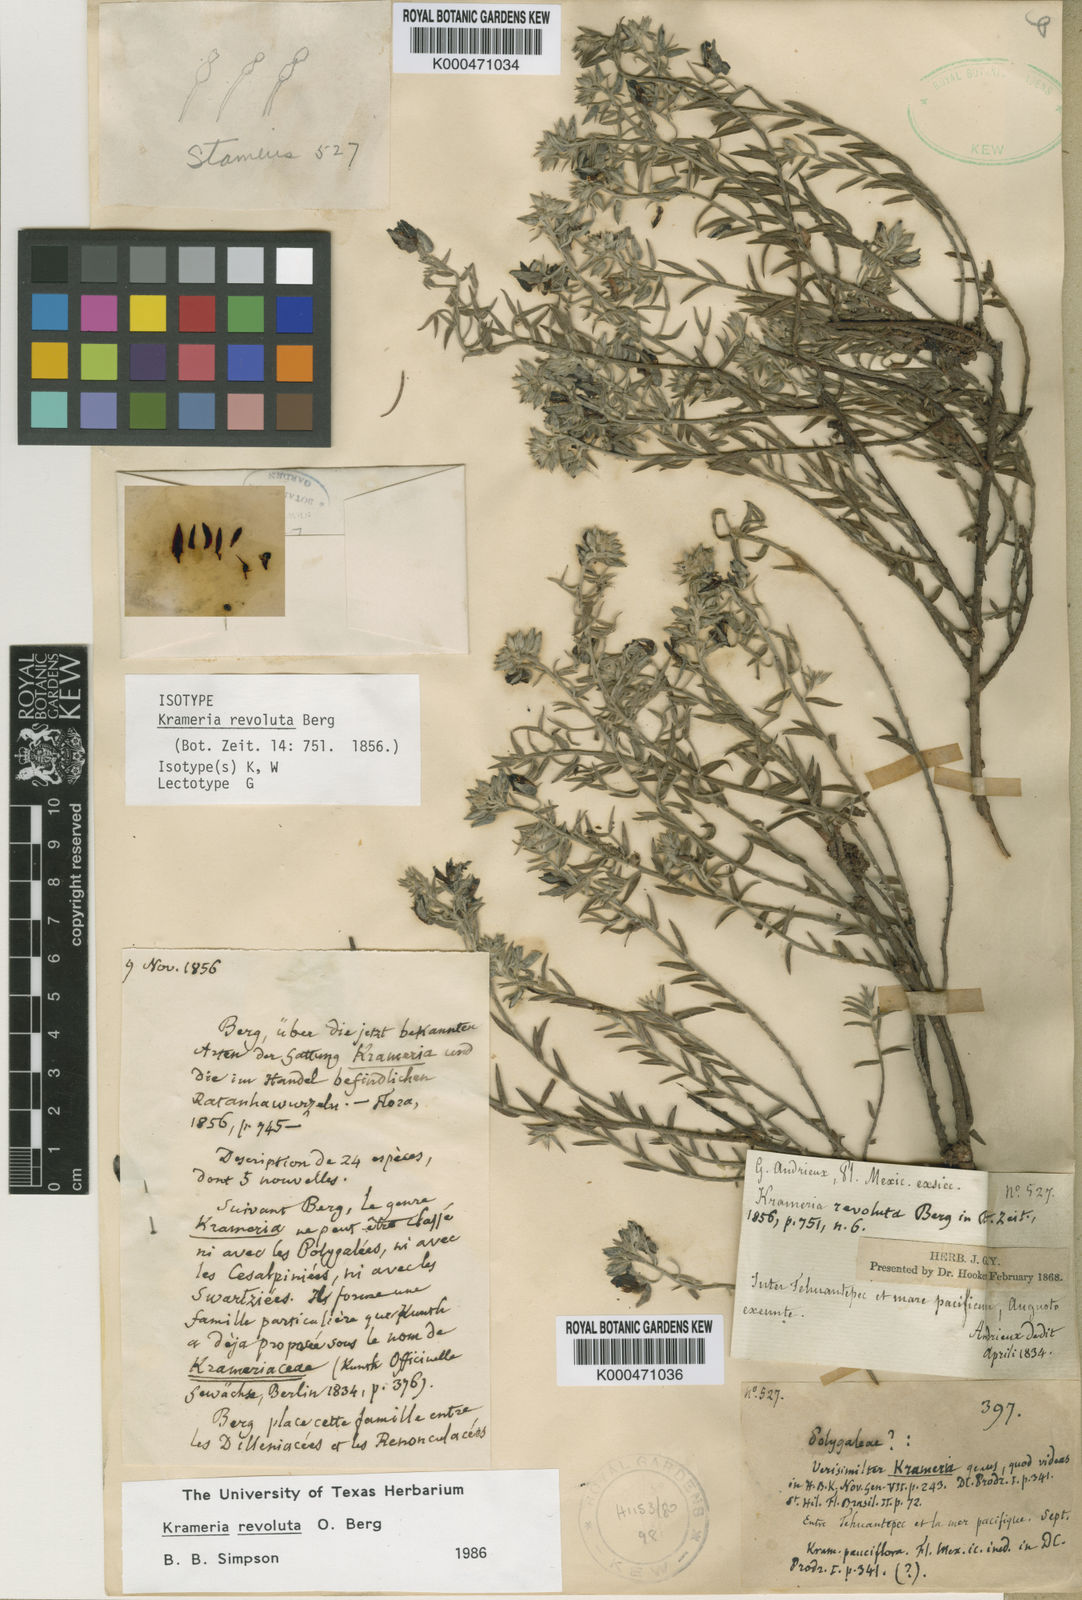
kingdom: Plantae
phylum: Tracheophyta
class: Magnoliopsida
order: Zygophyllales
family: Krameriaceae
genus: Krameria
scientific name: Krameria revoluta
